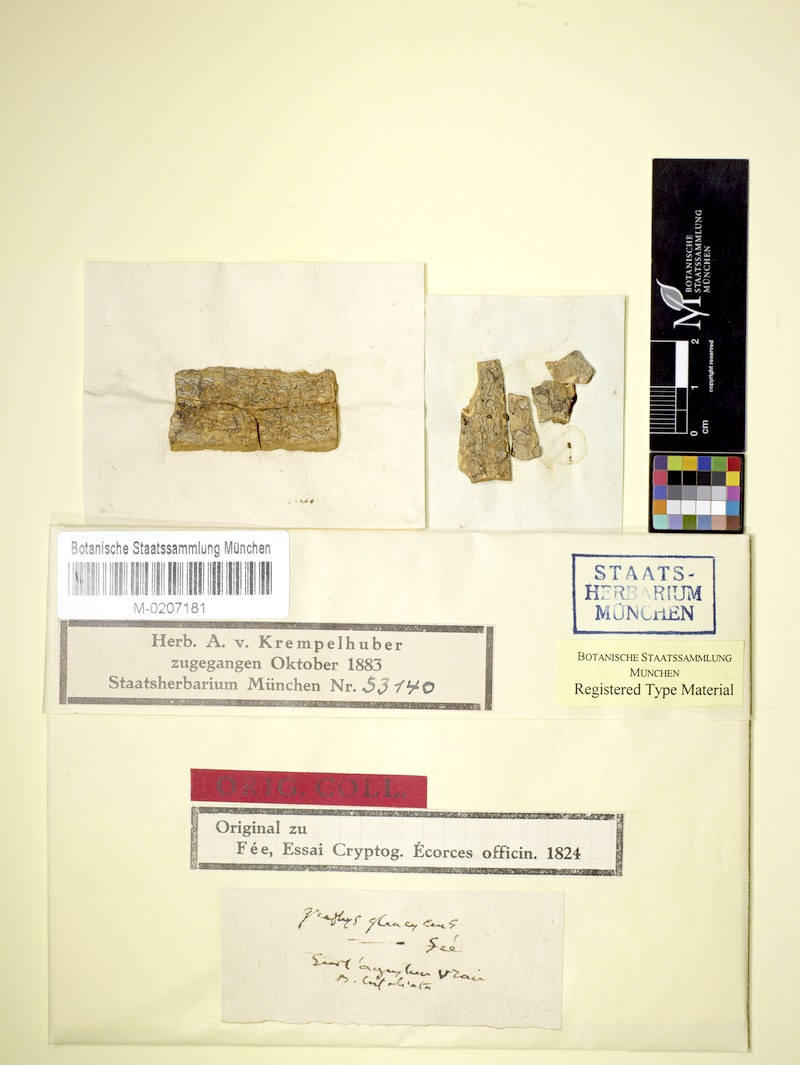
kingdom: Fungi
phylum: Ascomycota
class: Lecanoromycetes
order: Ostropales
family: Graphidaceae
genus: Graphis
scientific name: Graphis glaucescens
